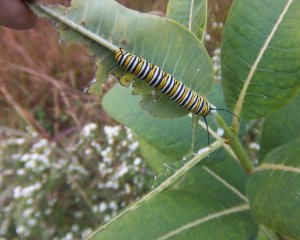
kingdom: Animalia
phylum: Arthropoda
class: Insecta
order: Lepidoptera
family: Nymphalidae
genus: Danaus
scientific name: Danaus plexippus
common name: Monarch
